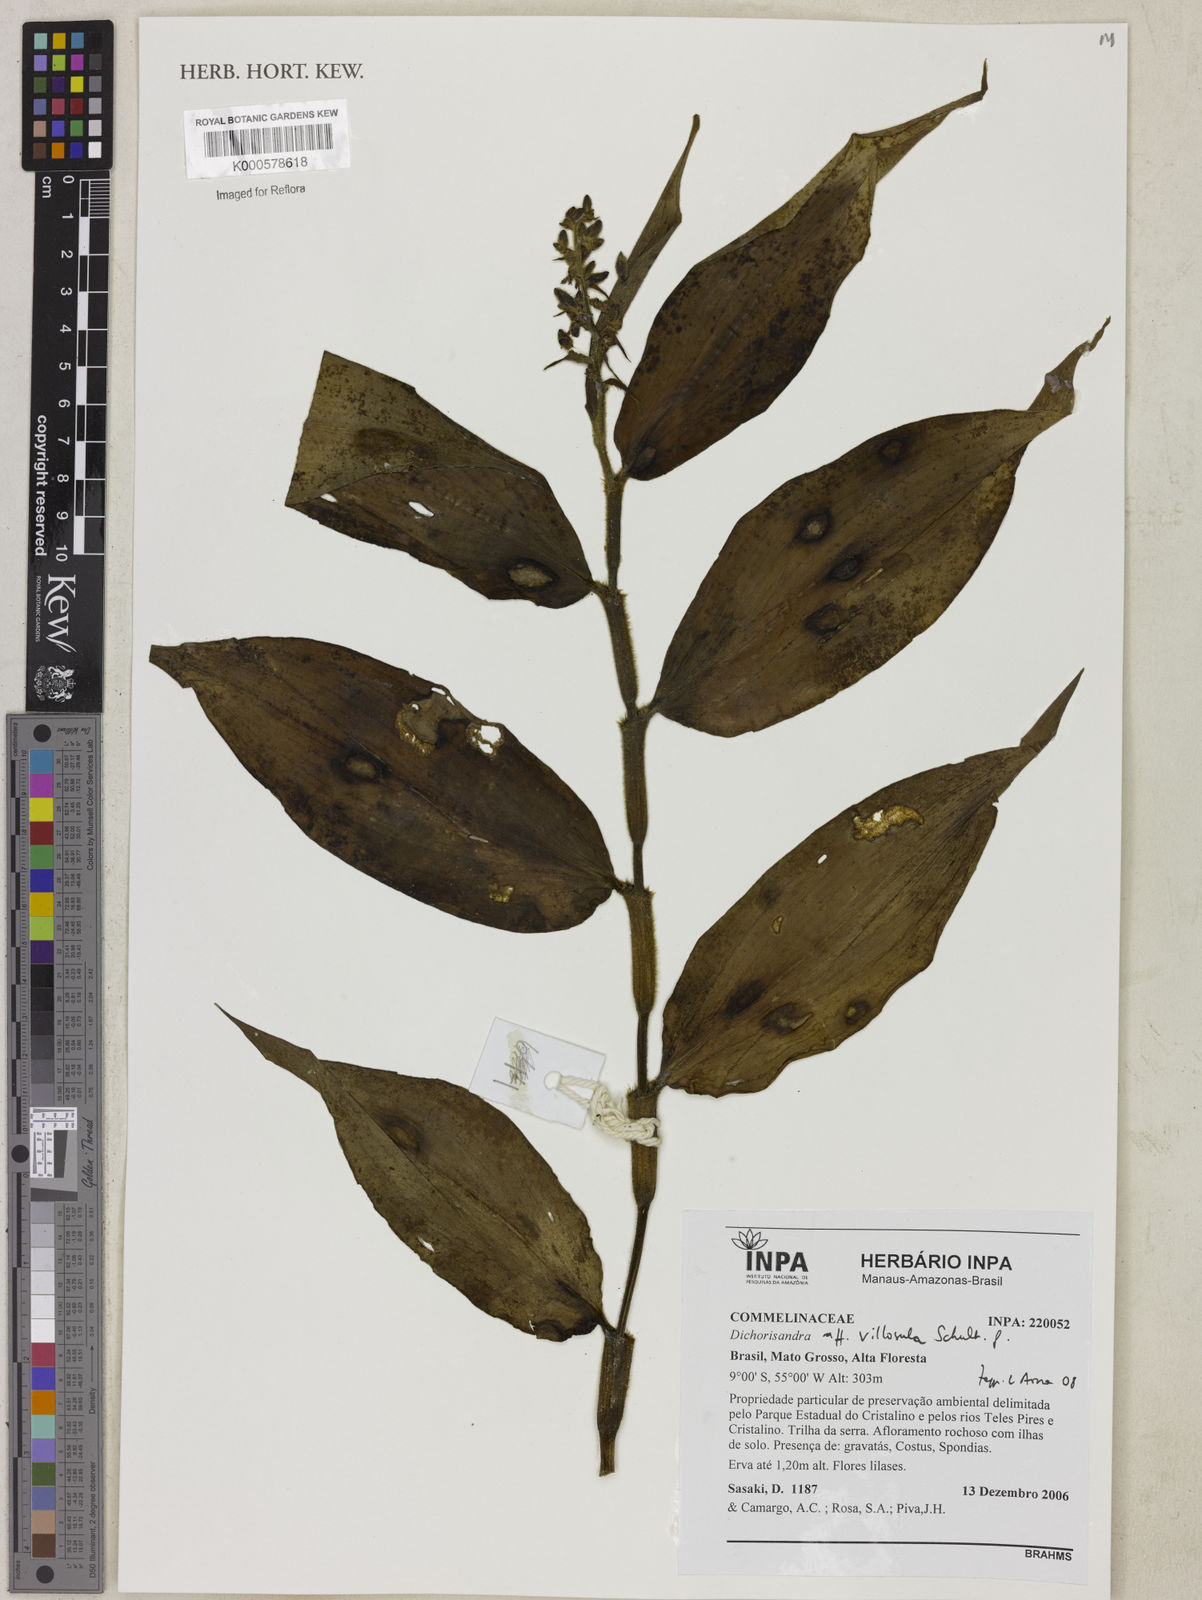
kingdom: Plantae
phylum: Tracheophyta
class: Liliopsida
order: Commelinales
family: Commelinaceae
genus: Dichorisandra
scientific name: Dichorisandra
